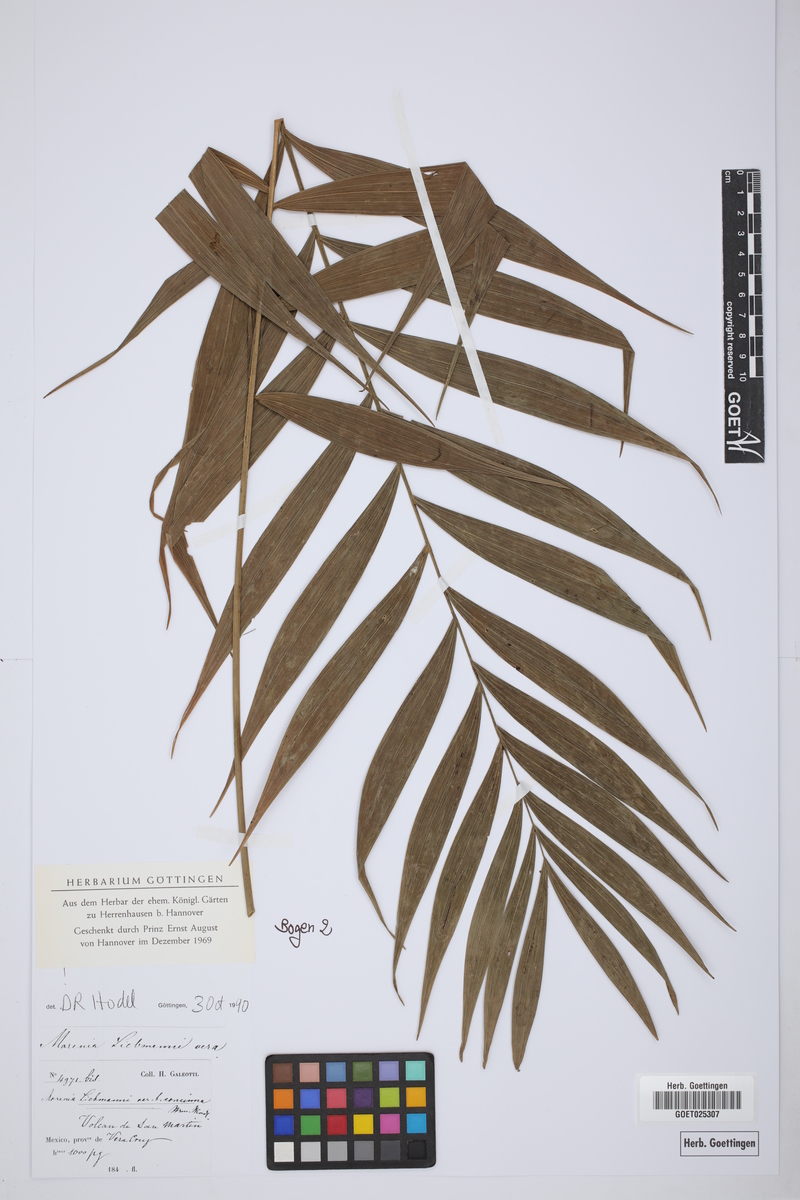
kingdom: Plantae
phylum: Tracheophyta
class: Liliopsida
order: Arecales
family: Arecaceae
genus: Chamaedorea
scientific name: Chamaedorea
